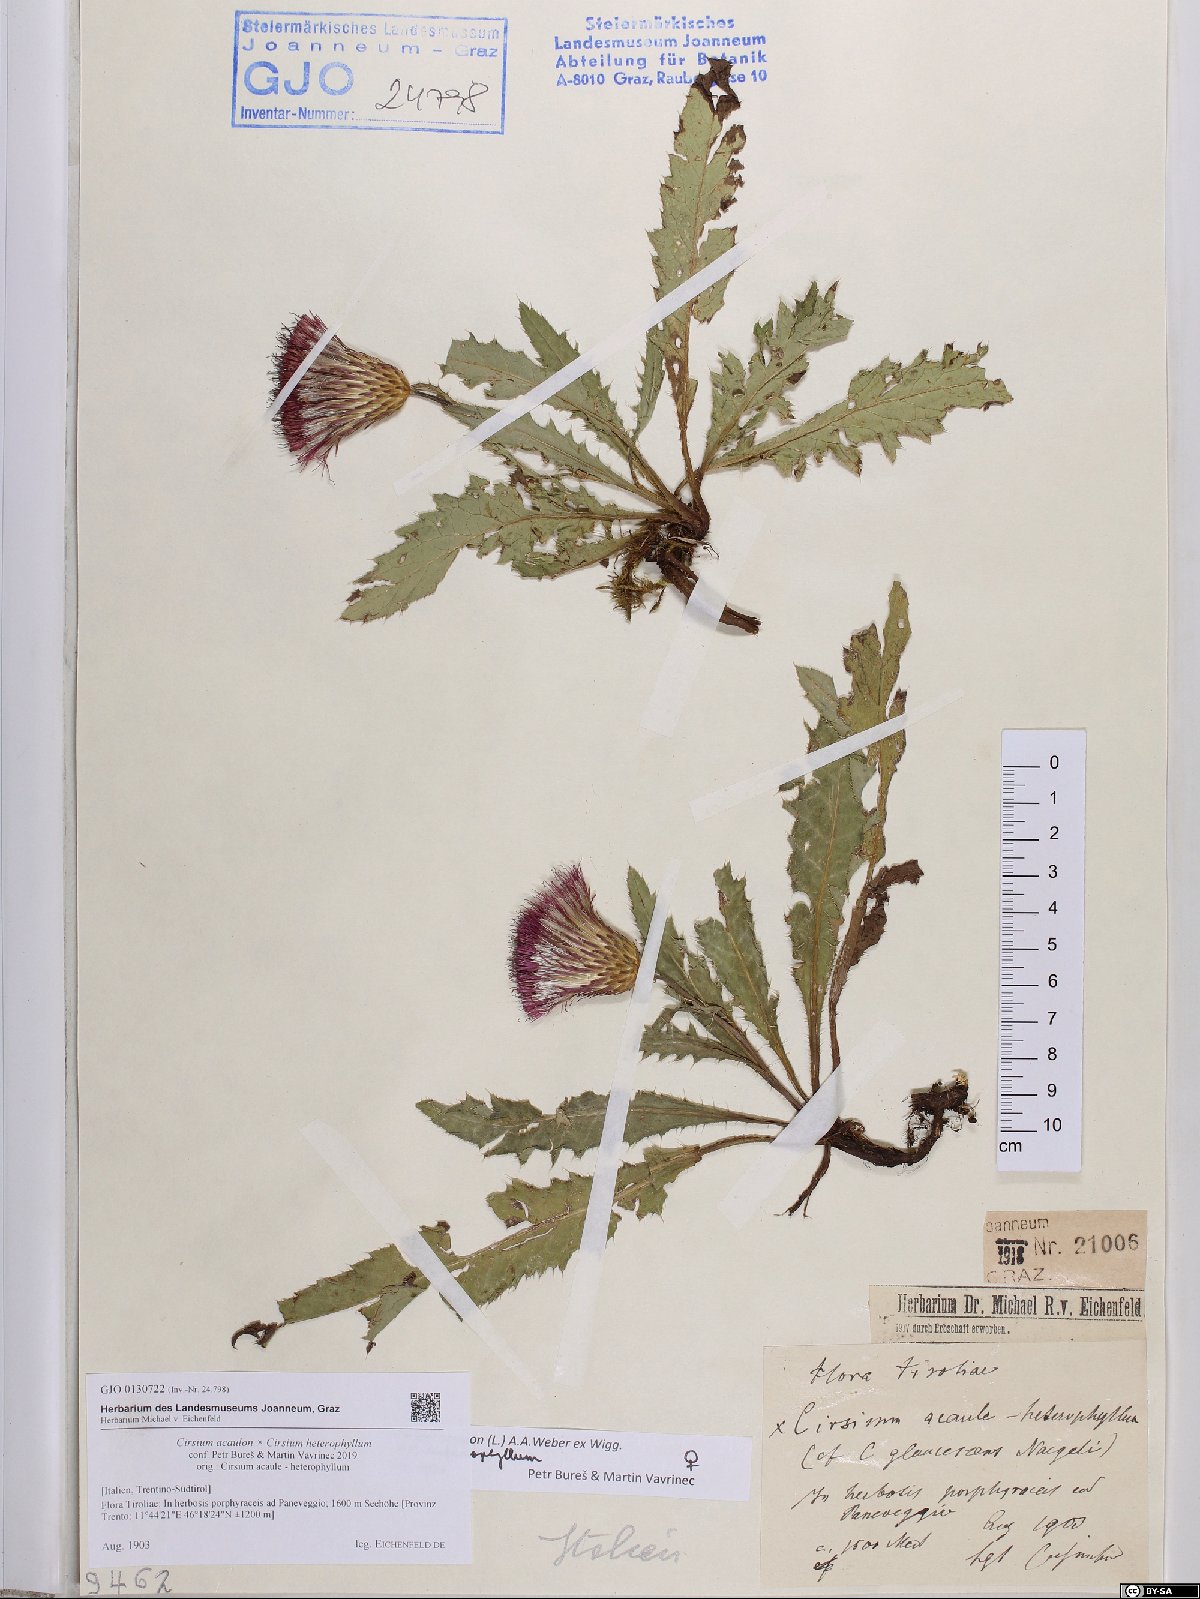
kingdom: Plantae
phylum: Tracheophyta
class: Magnoliopsida
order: Asterales
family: Asteraceae
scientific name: Asteraceae
